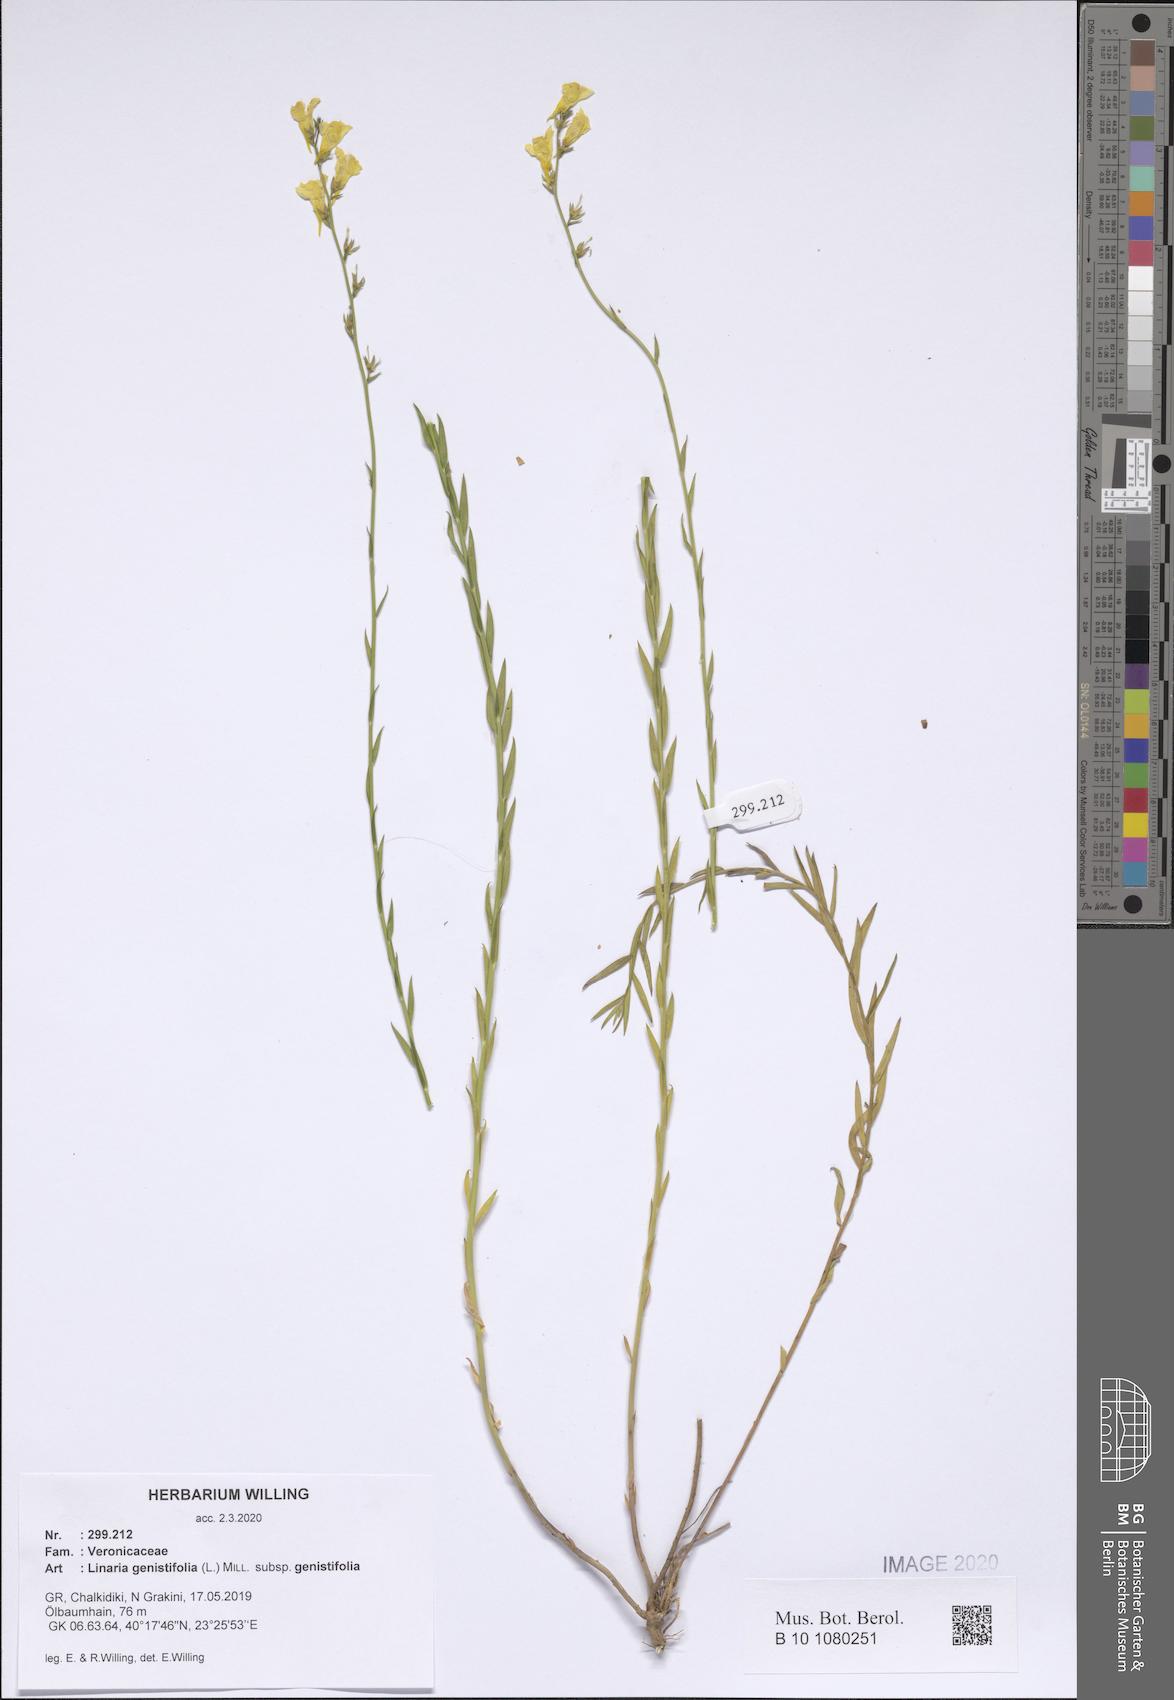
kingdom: Plantae
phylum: Tracheophyta
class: Magnoliopsida
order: Lamiales
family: Plantaginaceae
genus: Linaria
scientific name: Linaria genistifolia
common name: Broomleaf toadflax
